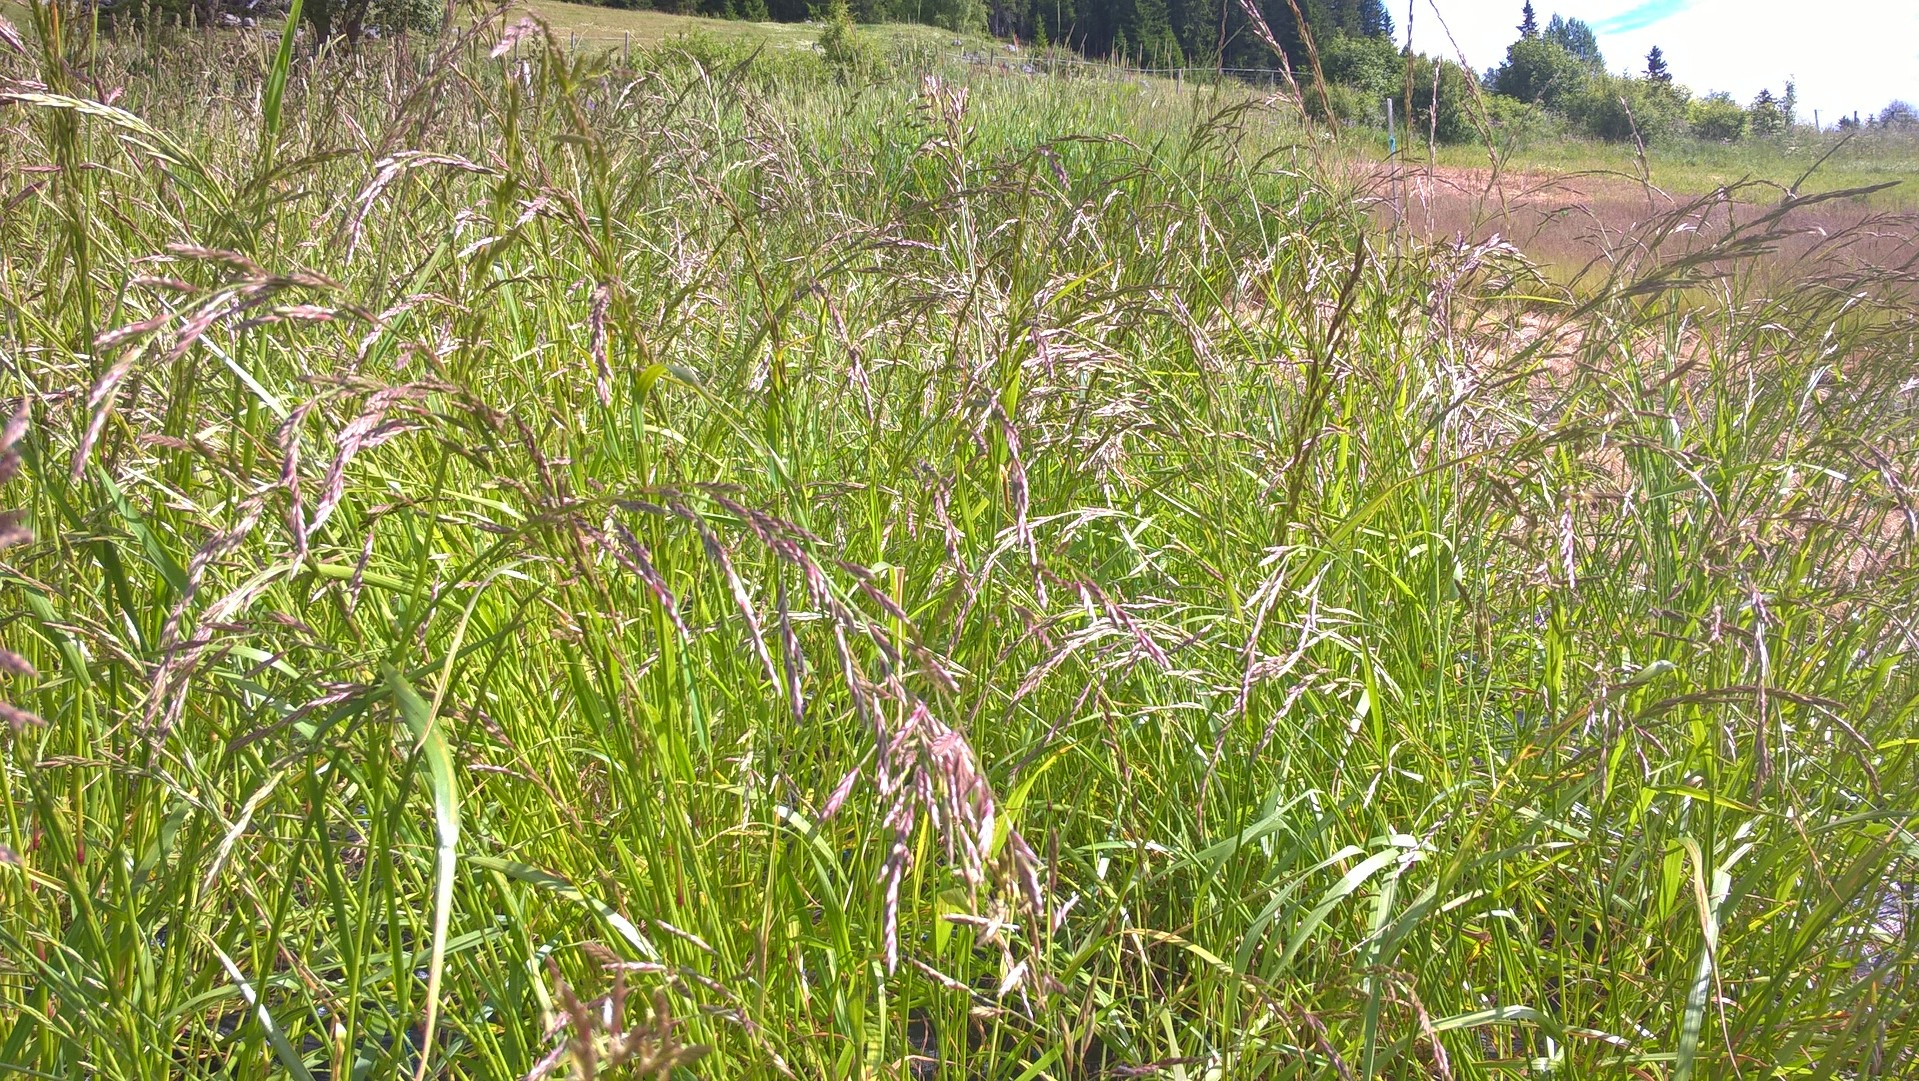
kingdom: Plantae
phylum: Tracheophyta
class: Liliopsida
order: Poales
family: Poaceae
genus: Lolium
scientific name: Lolium pratense
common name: Dover grass
